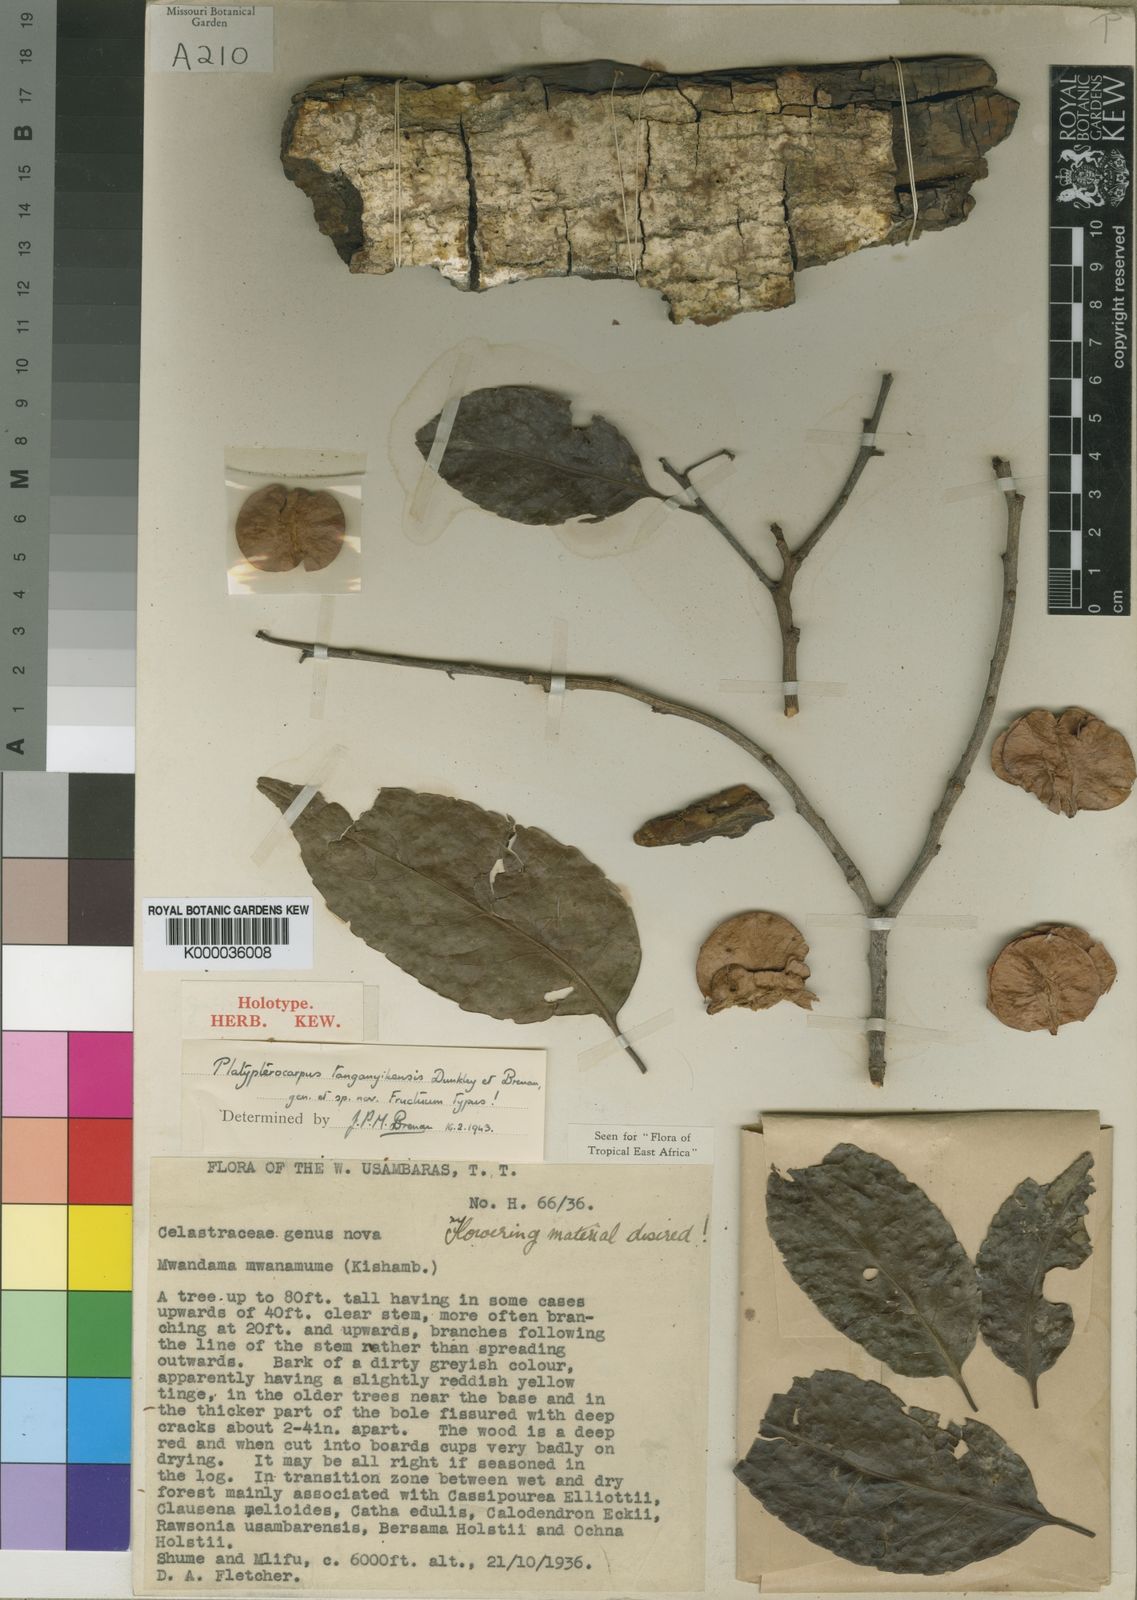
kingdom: Plantae
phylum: Tracheophyta
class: Magnoliopsida
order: Celastrales
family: Celastraceae
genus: Platypterocarpus
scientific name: Platypterocarpus tanganyikensis
